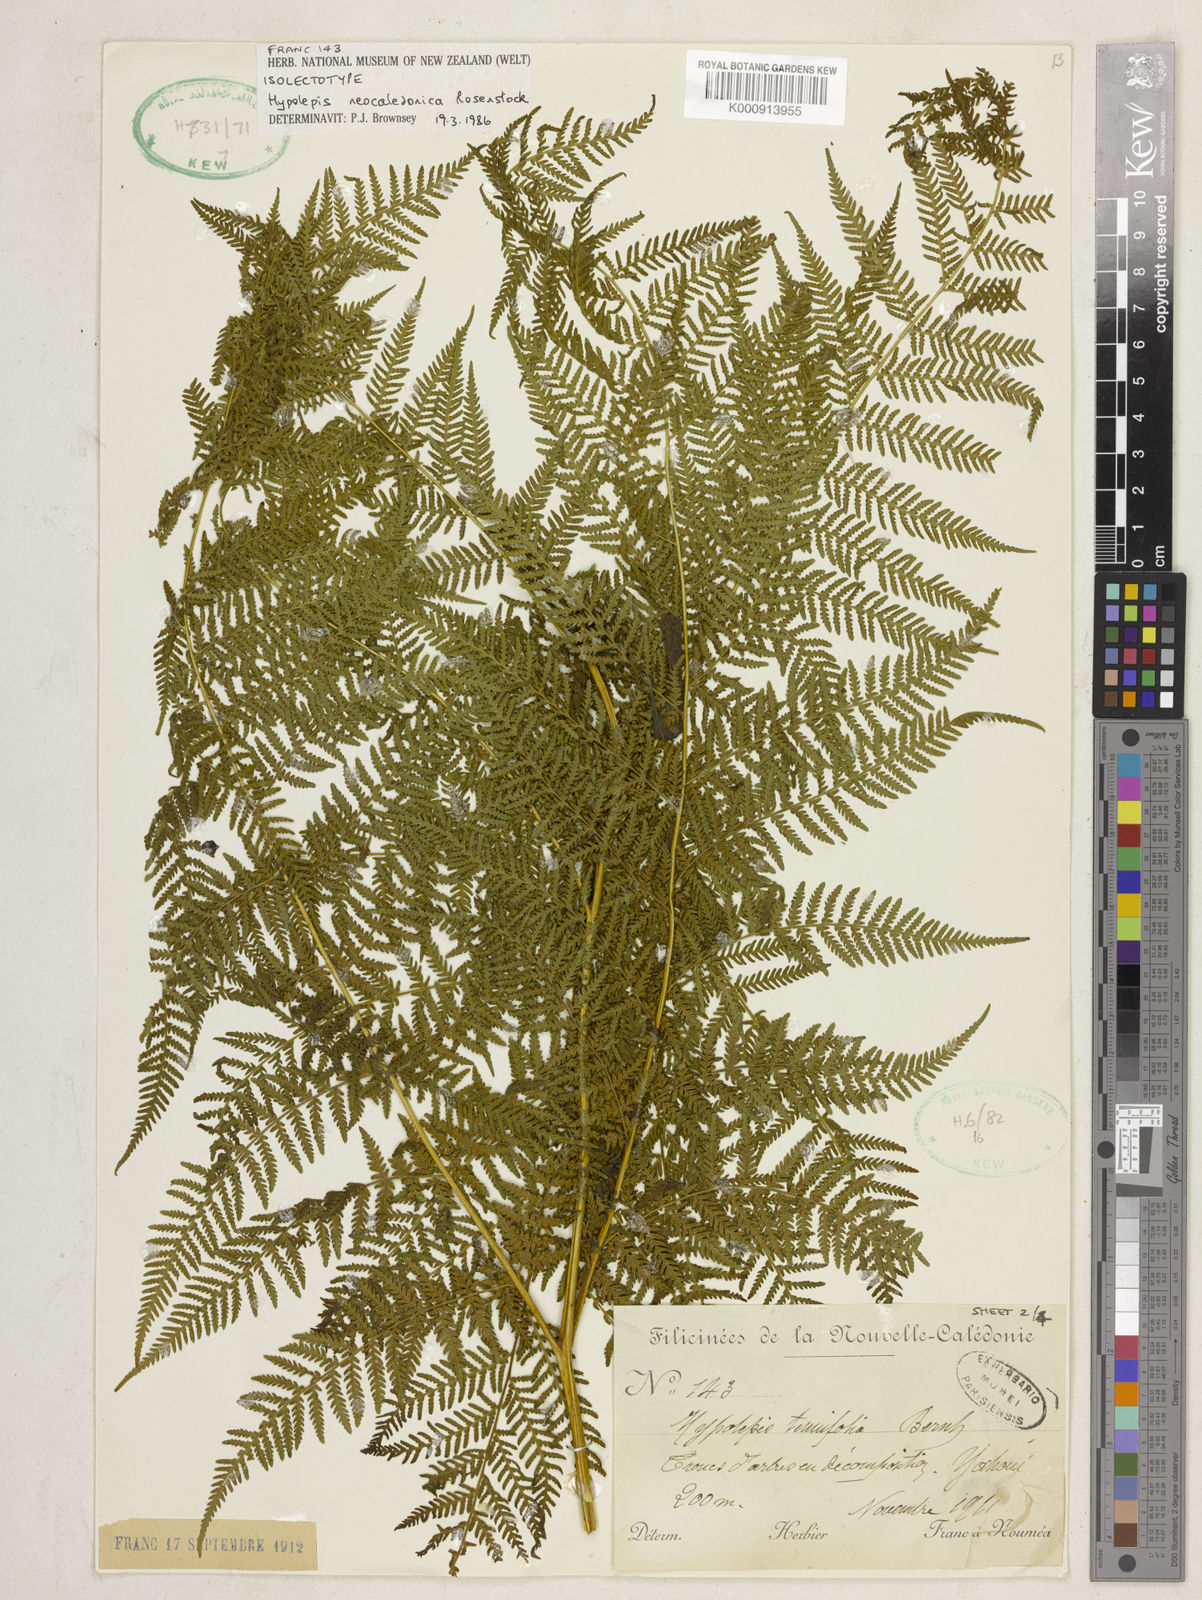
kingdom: Plantae
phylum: Tracheophyta
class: Polypodiopsida
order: Polypodiales
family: Dennstaedtiaceae
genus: Hypolepis
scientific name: Hypolepis tenuifolia
